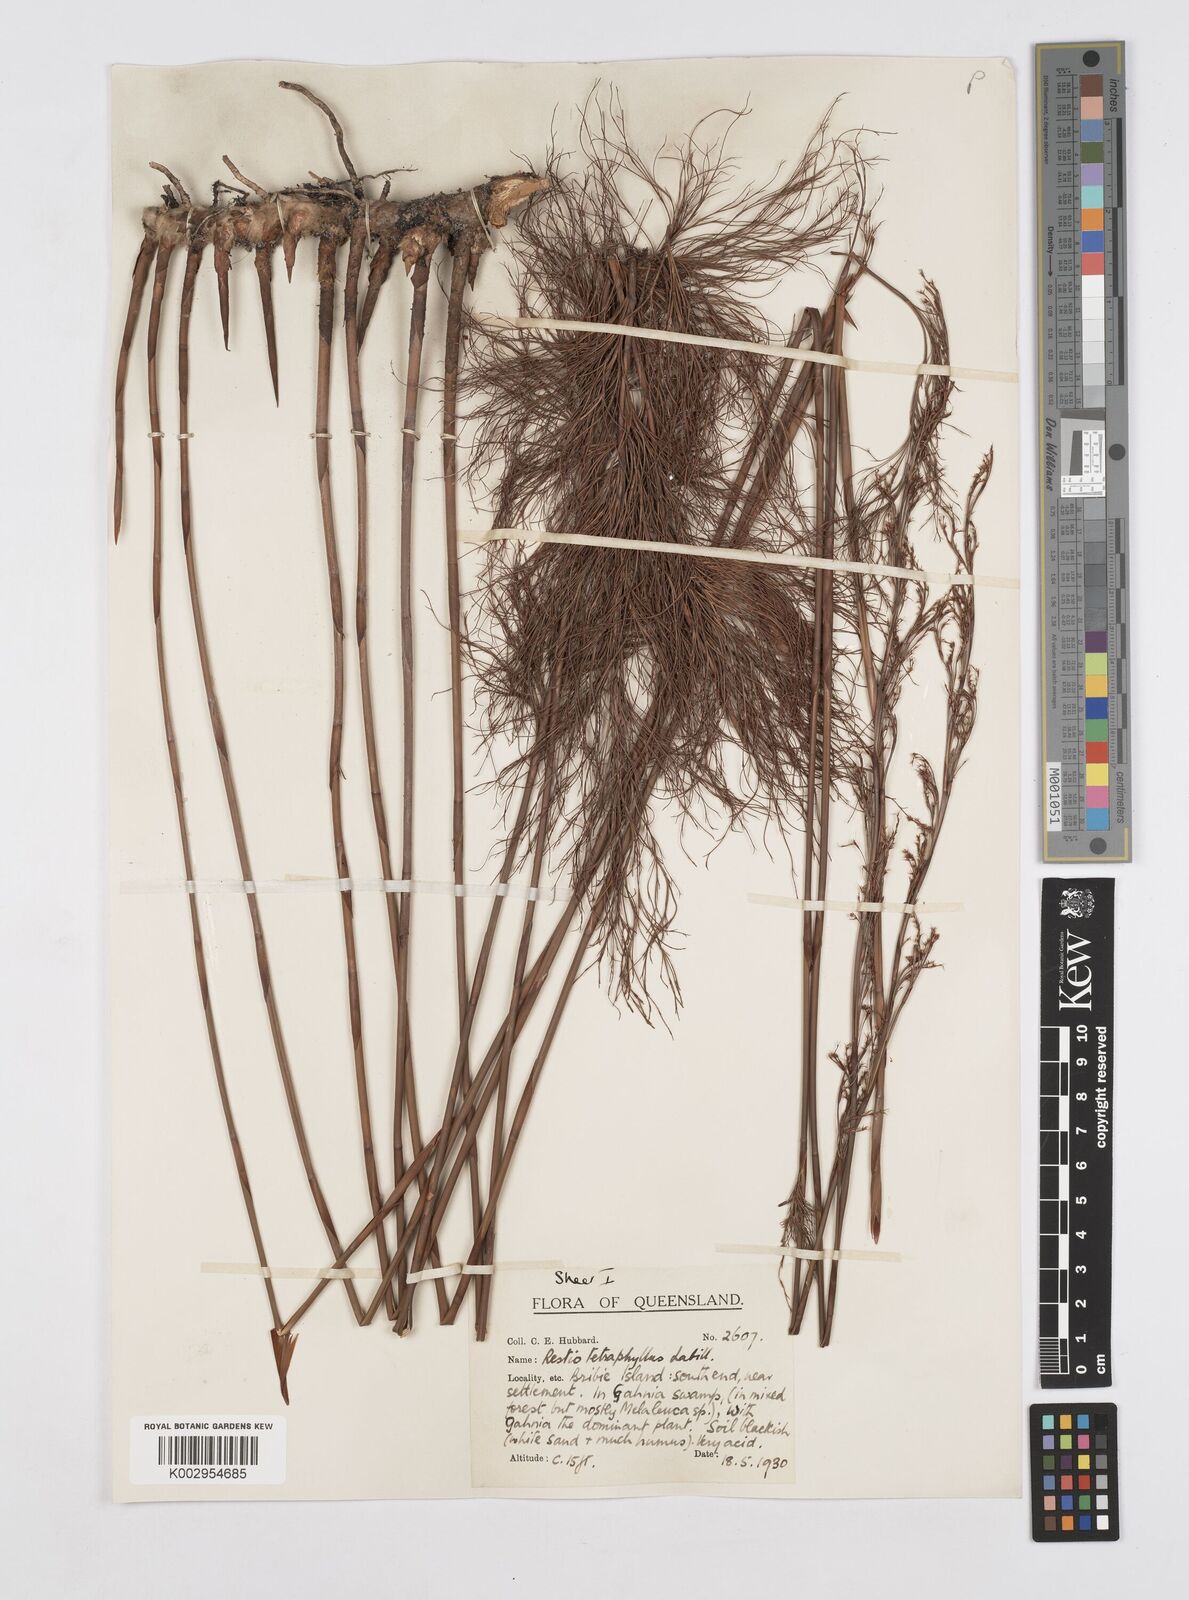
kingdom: Plantae
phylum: Tracheophyta
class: Liliopsida
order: Poales
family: Restionaceae
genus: Baloskion
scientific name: Baloskion tetraphyllum
